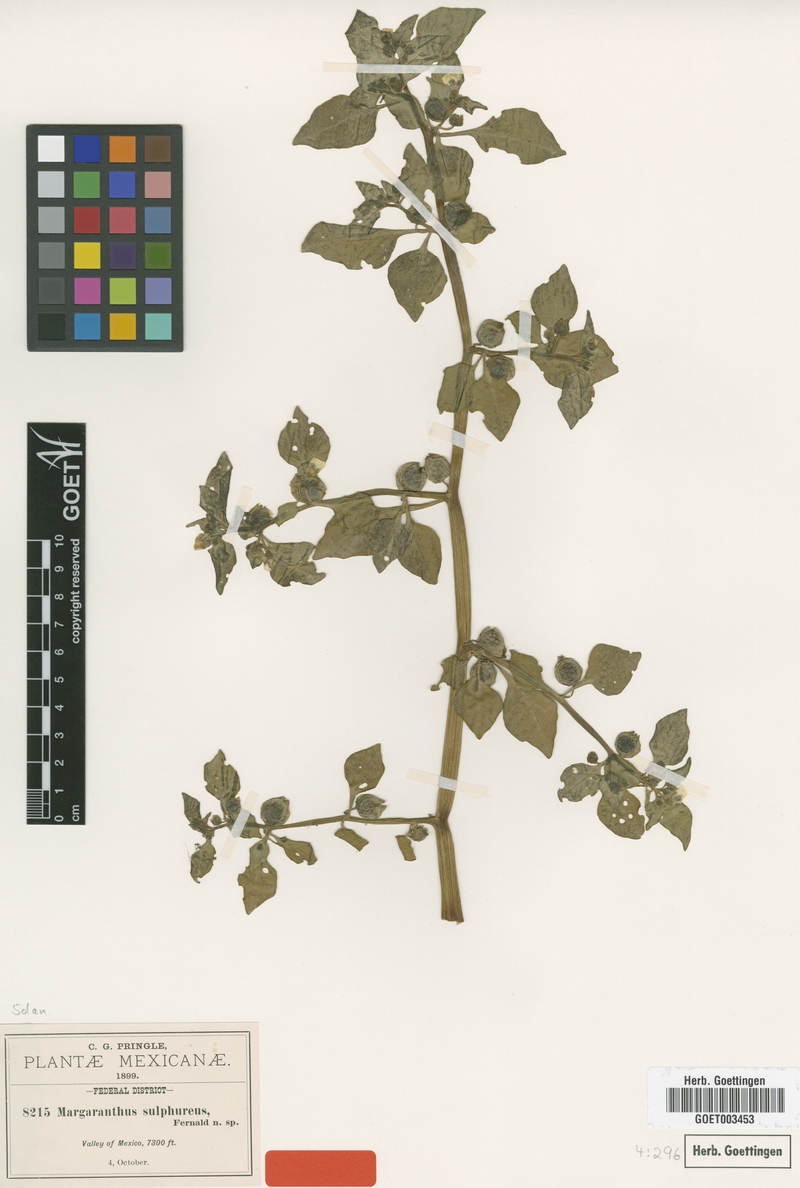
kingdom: Plantae
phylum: Tracheophyta
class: Magnoliopsida
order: Solanales
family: Solanaceae
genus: Physalis
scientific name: Physalis sulphurea
